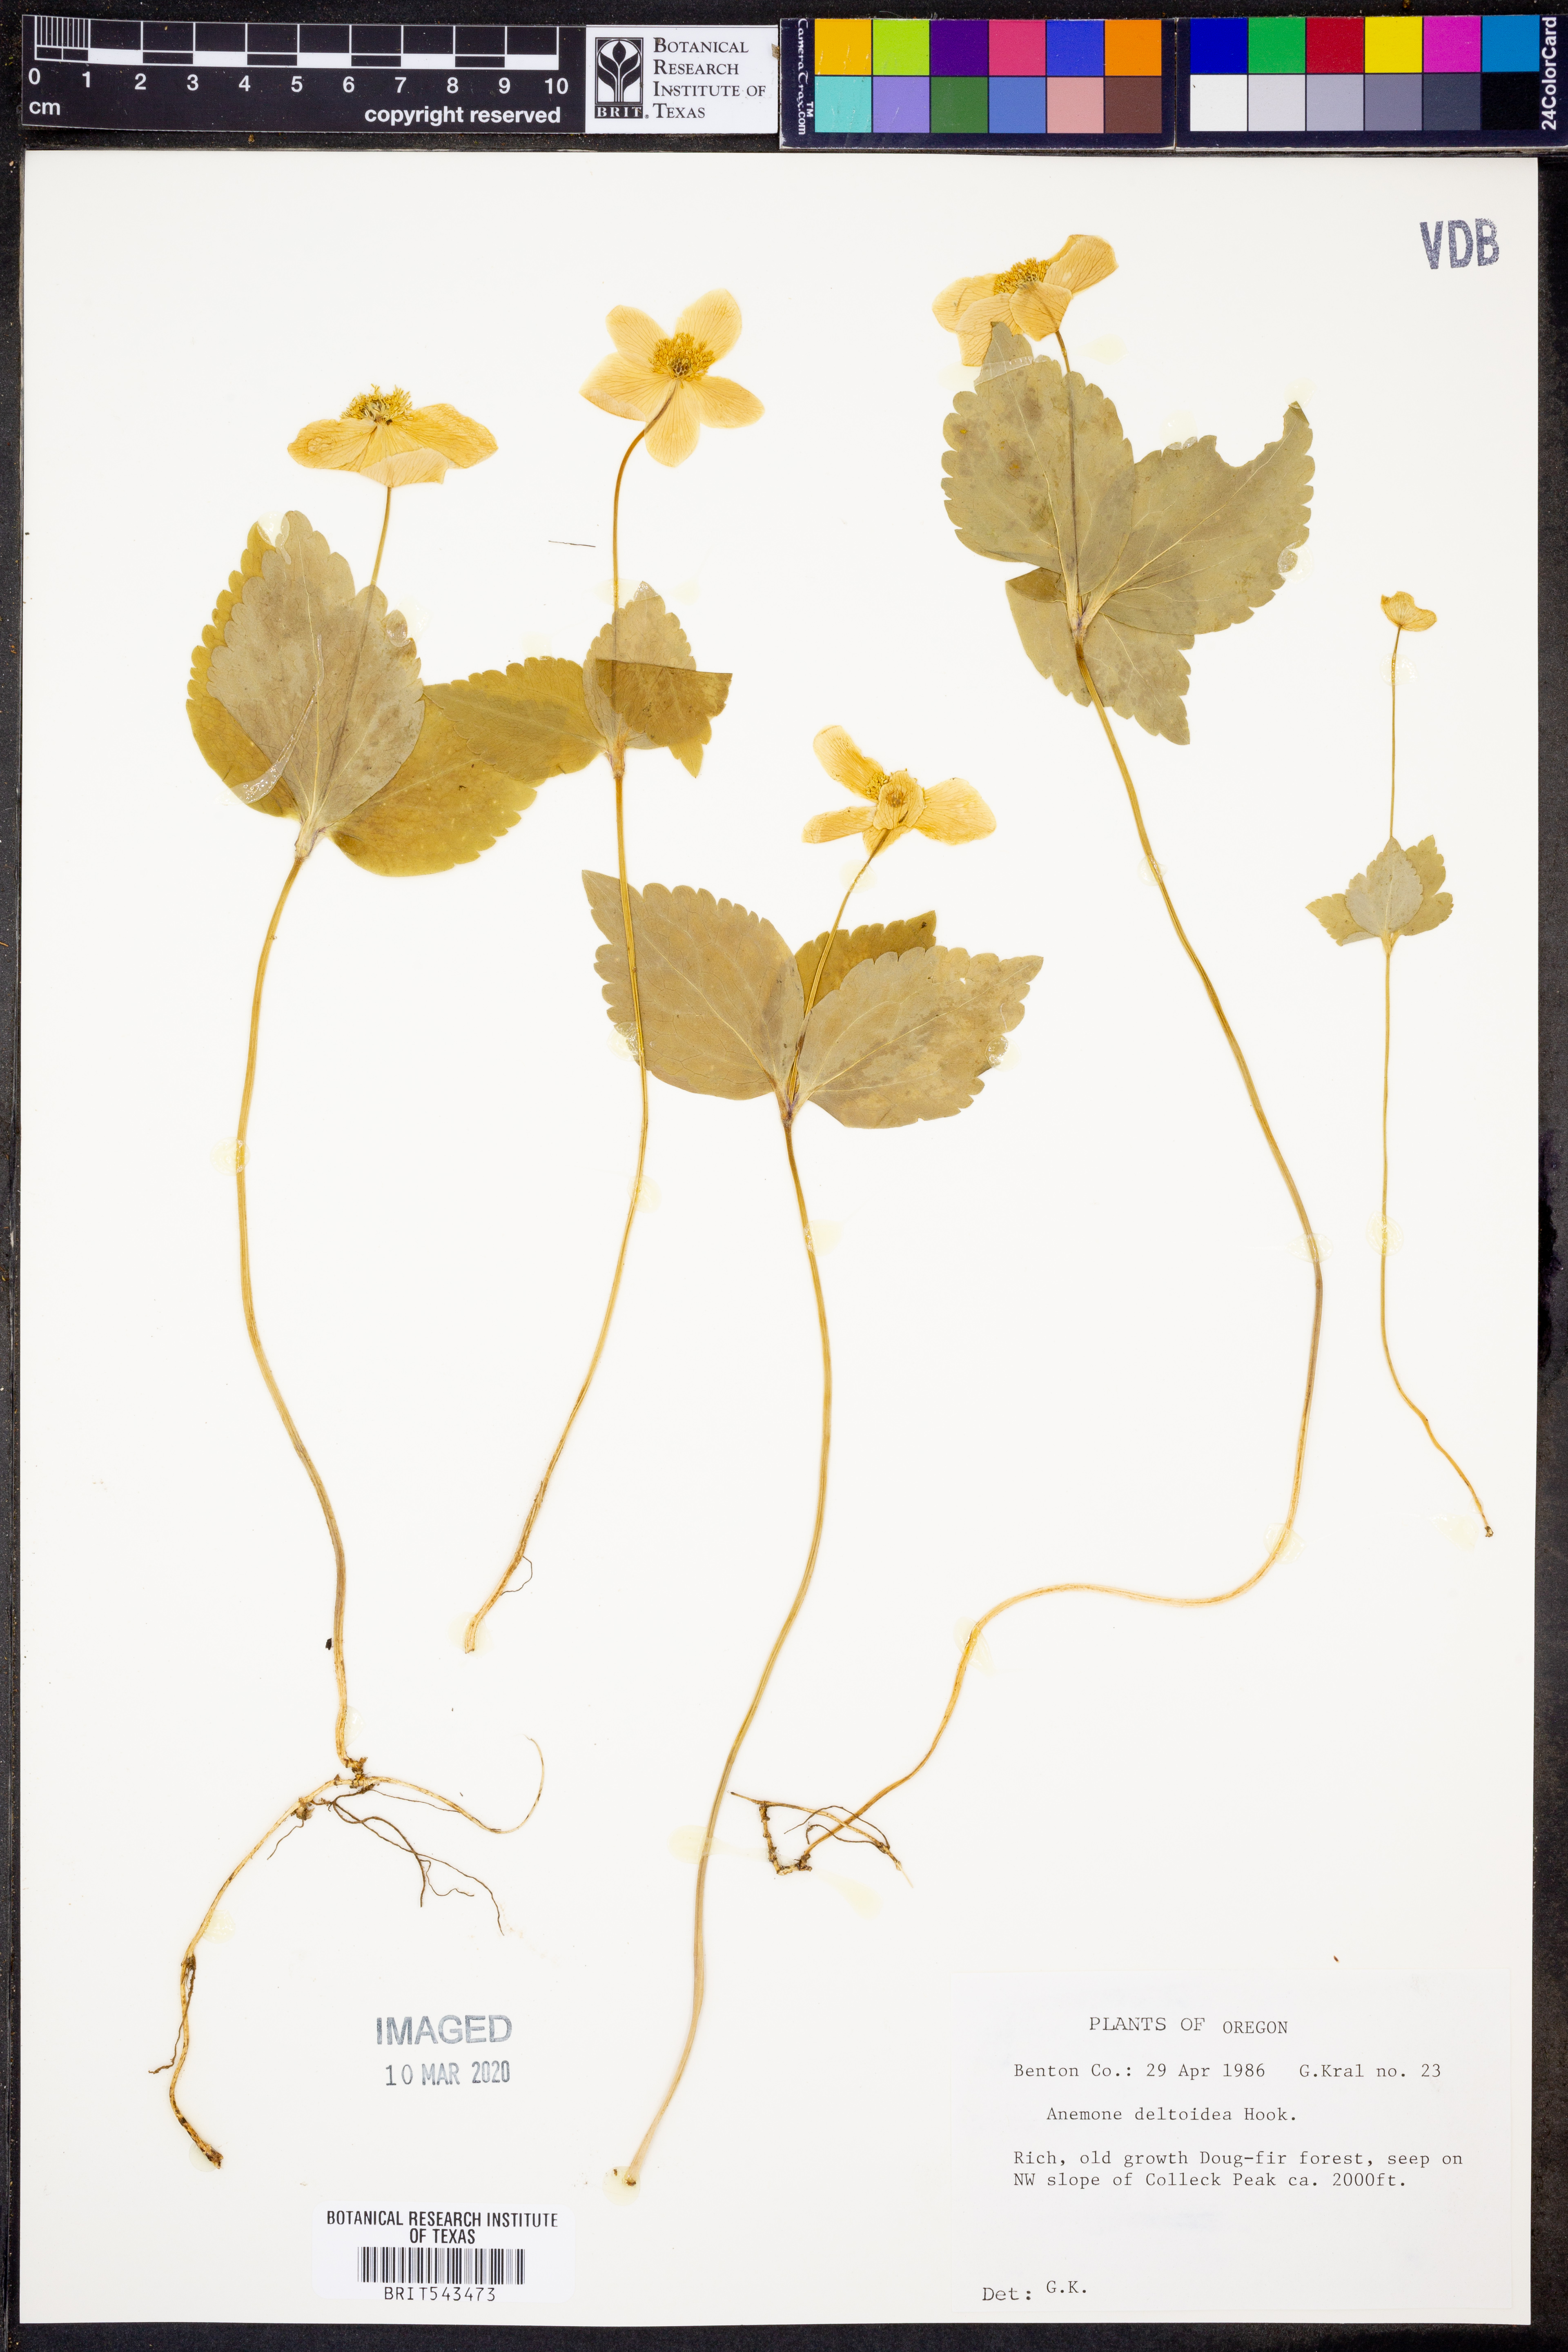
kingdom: Plantae
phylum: Tracheophyta
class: Magnoliopsida
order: Ranunculales
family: Ranunculaceae
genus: Anemonastrum
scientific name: Anemonastrum deltoideum
